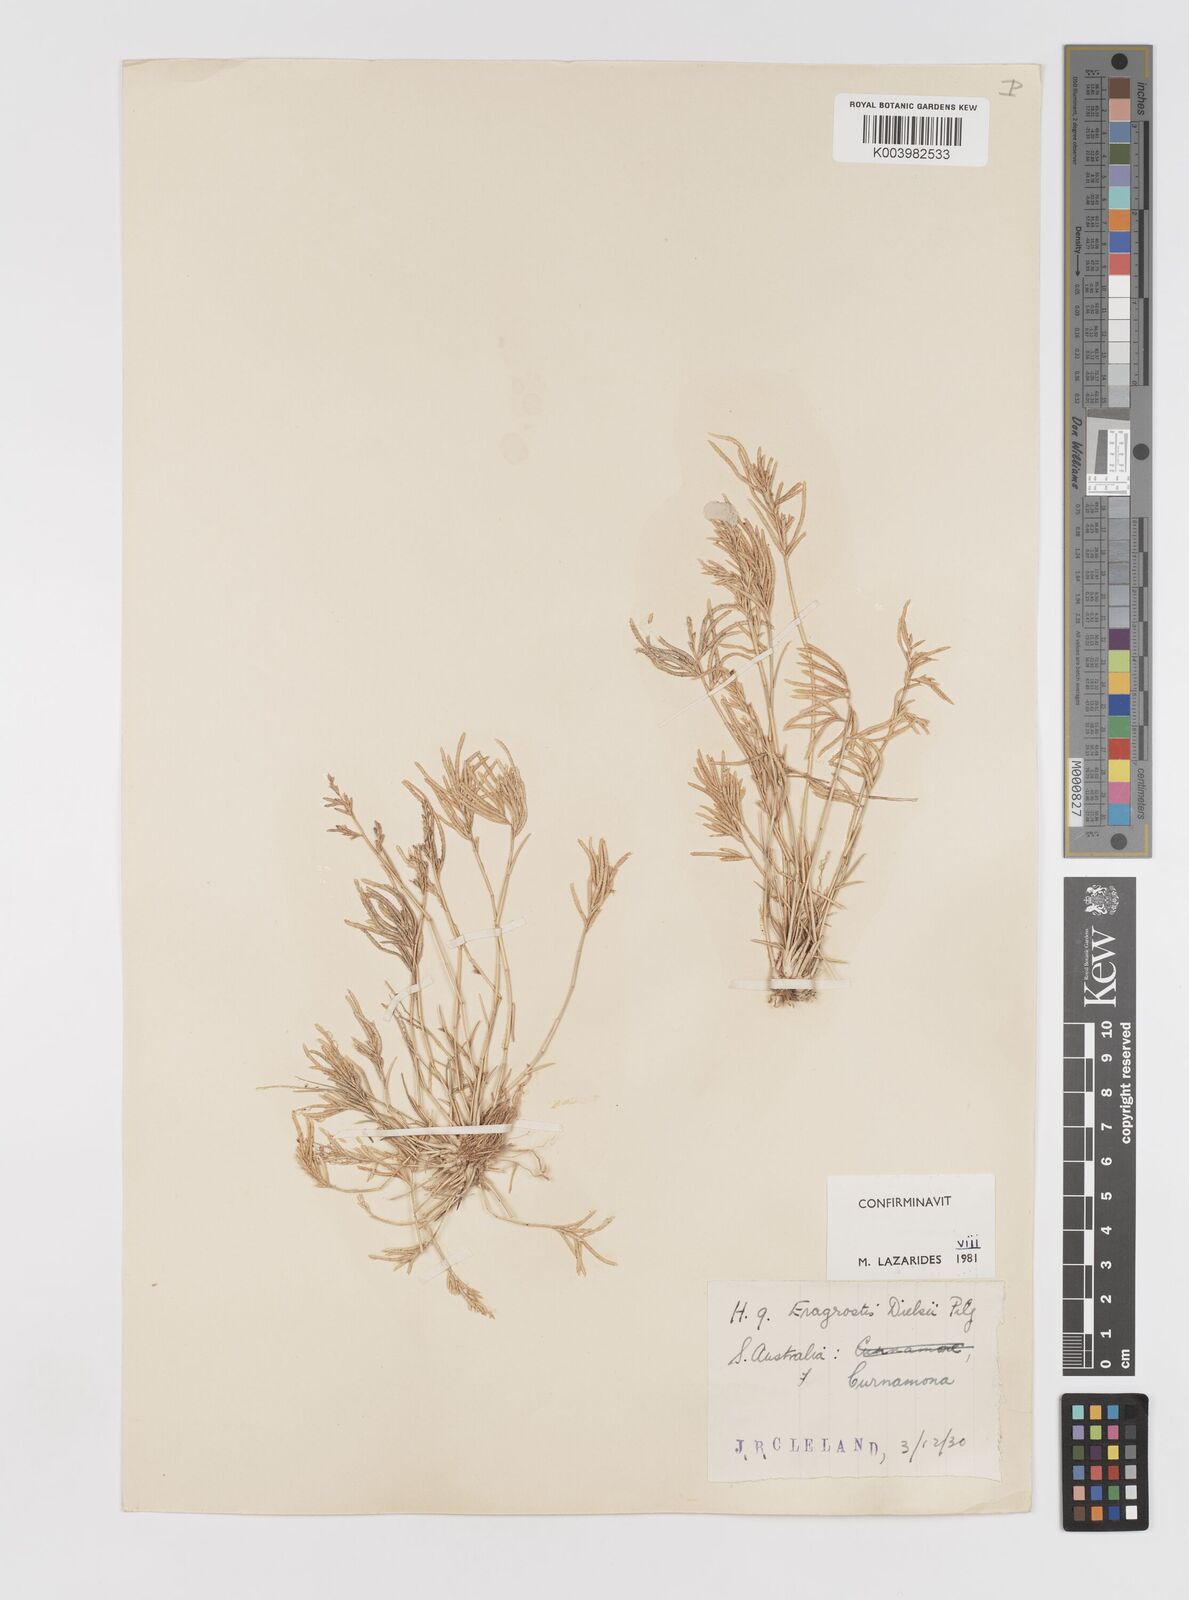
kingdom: Plantae
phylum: Tracheophyta
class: Liliopsida
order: Poales
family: Poaceae
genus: Eragrostis
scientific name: Eragrostis dielsii
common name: Lovegrass
